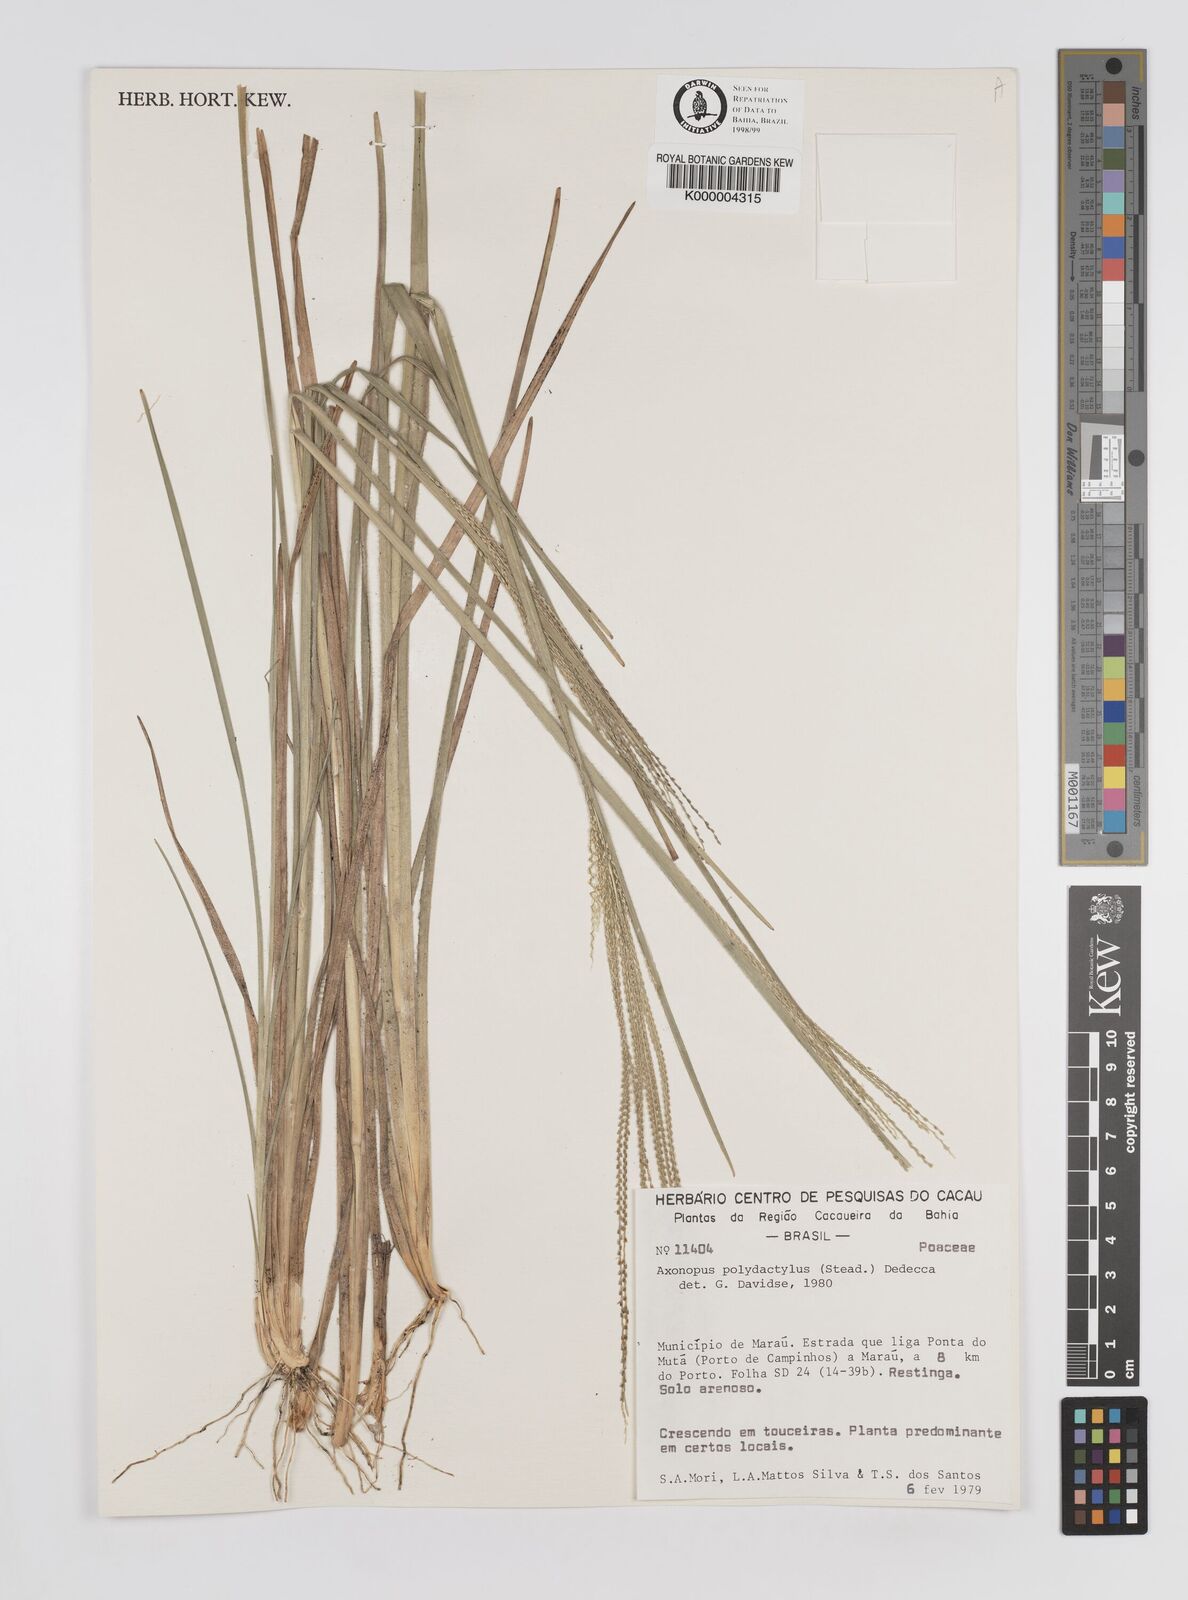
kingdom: Plantae
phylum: Tracheophyta
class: Liliopsida
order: Poales
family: Poaceae
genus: Axonopus
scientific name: Axonopus polydactylus
